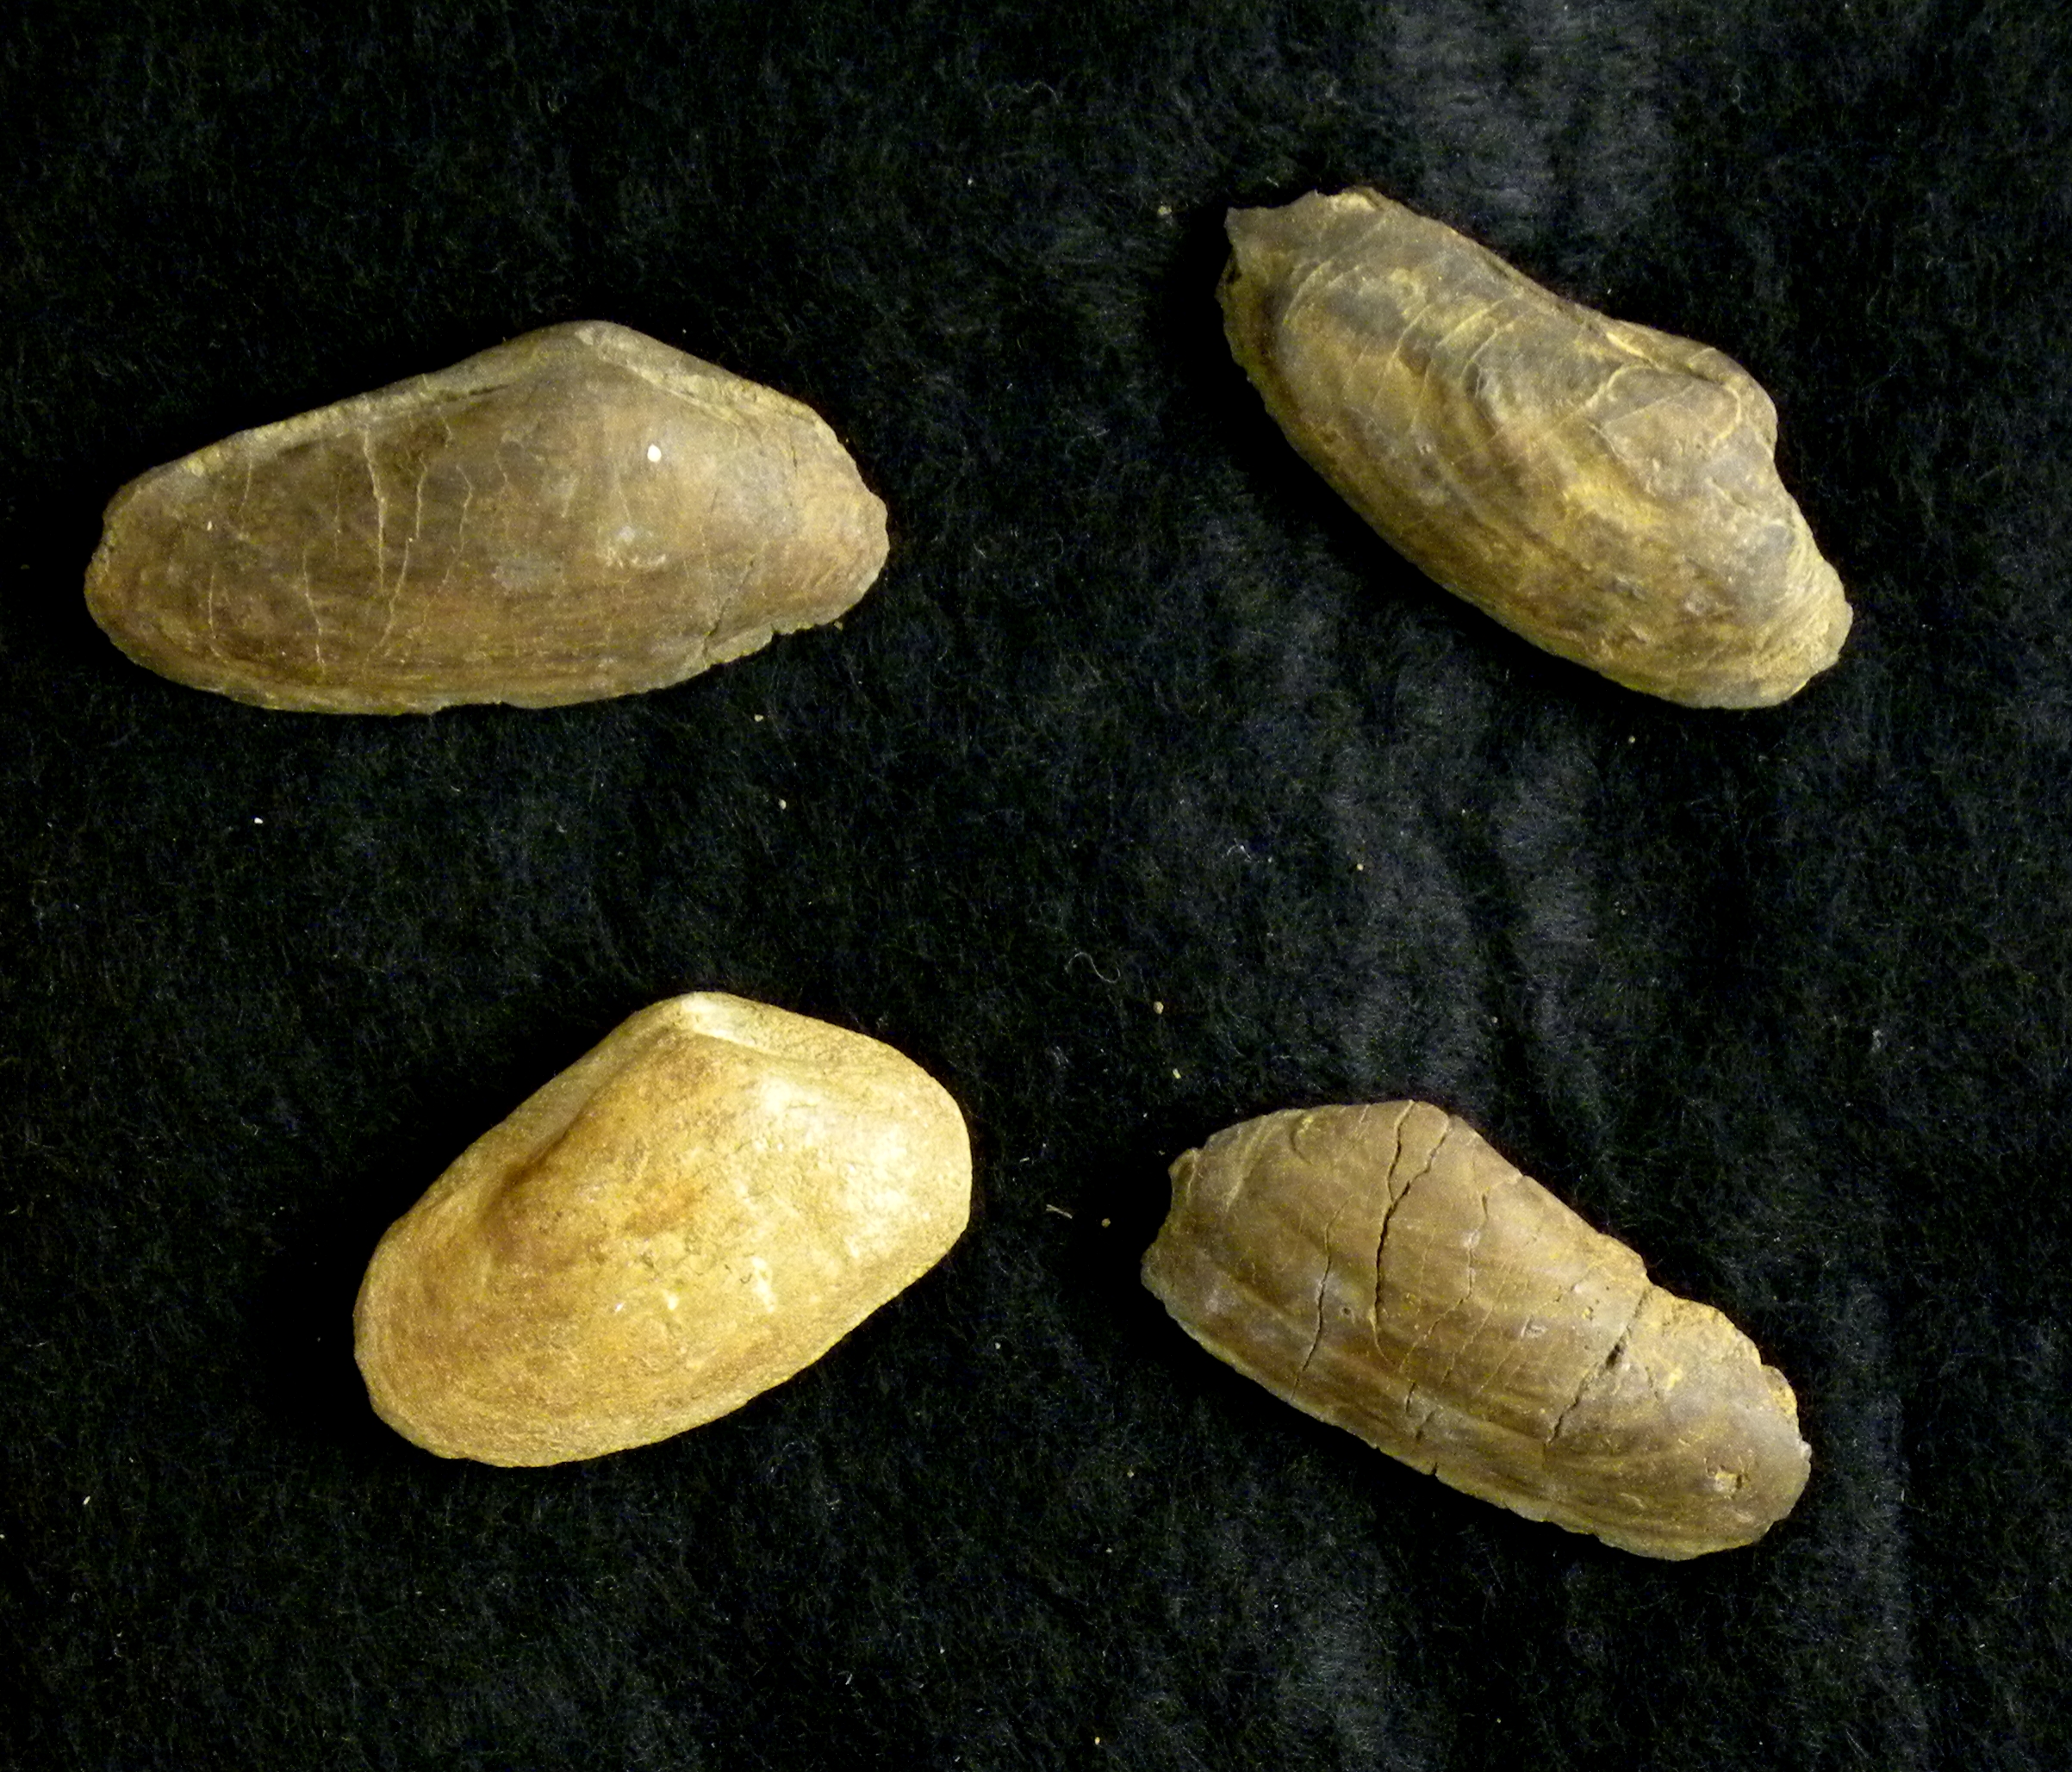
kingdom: Animalia
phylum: Mollusca
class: Bivalvia
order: Myida
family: Pleuromyidae
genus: Pleuromya
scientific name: Pleuromya Myacites elongatus
